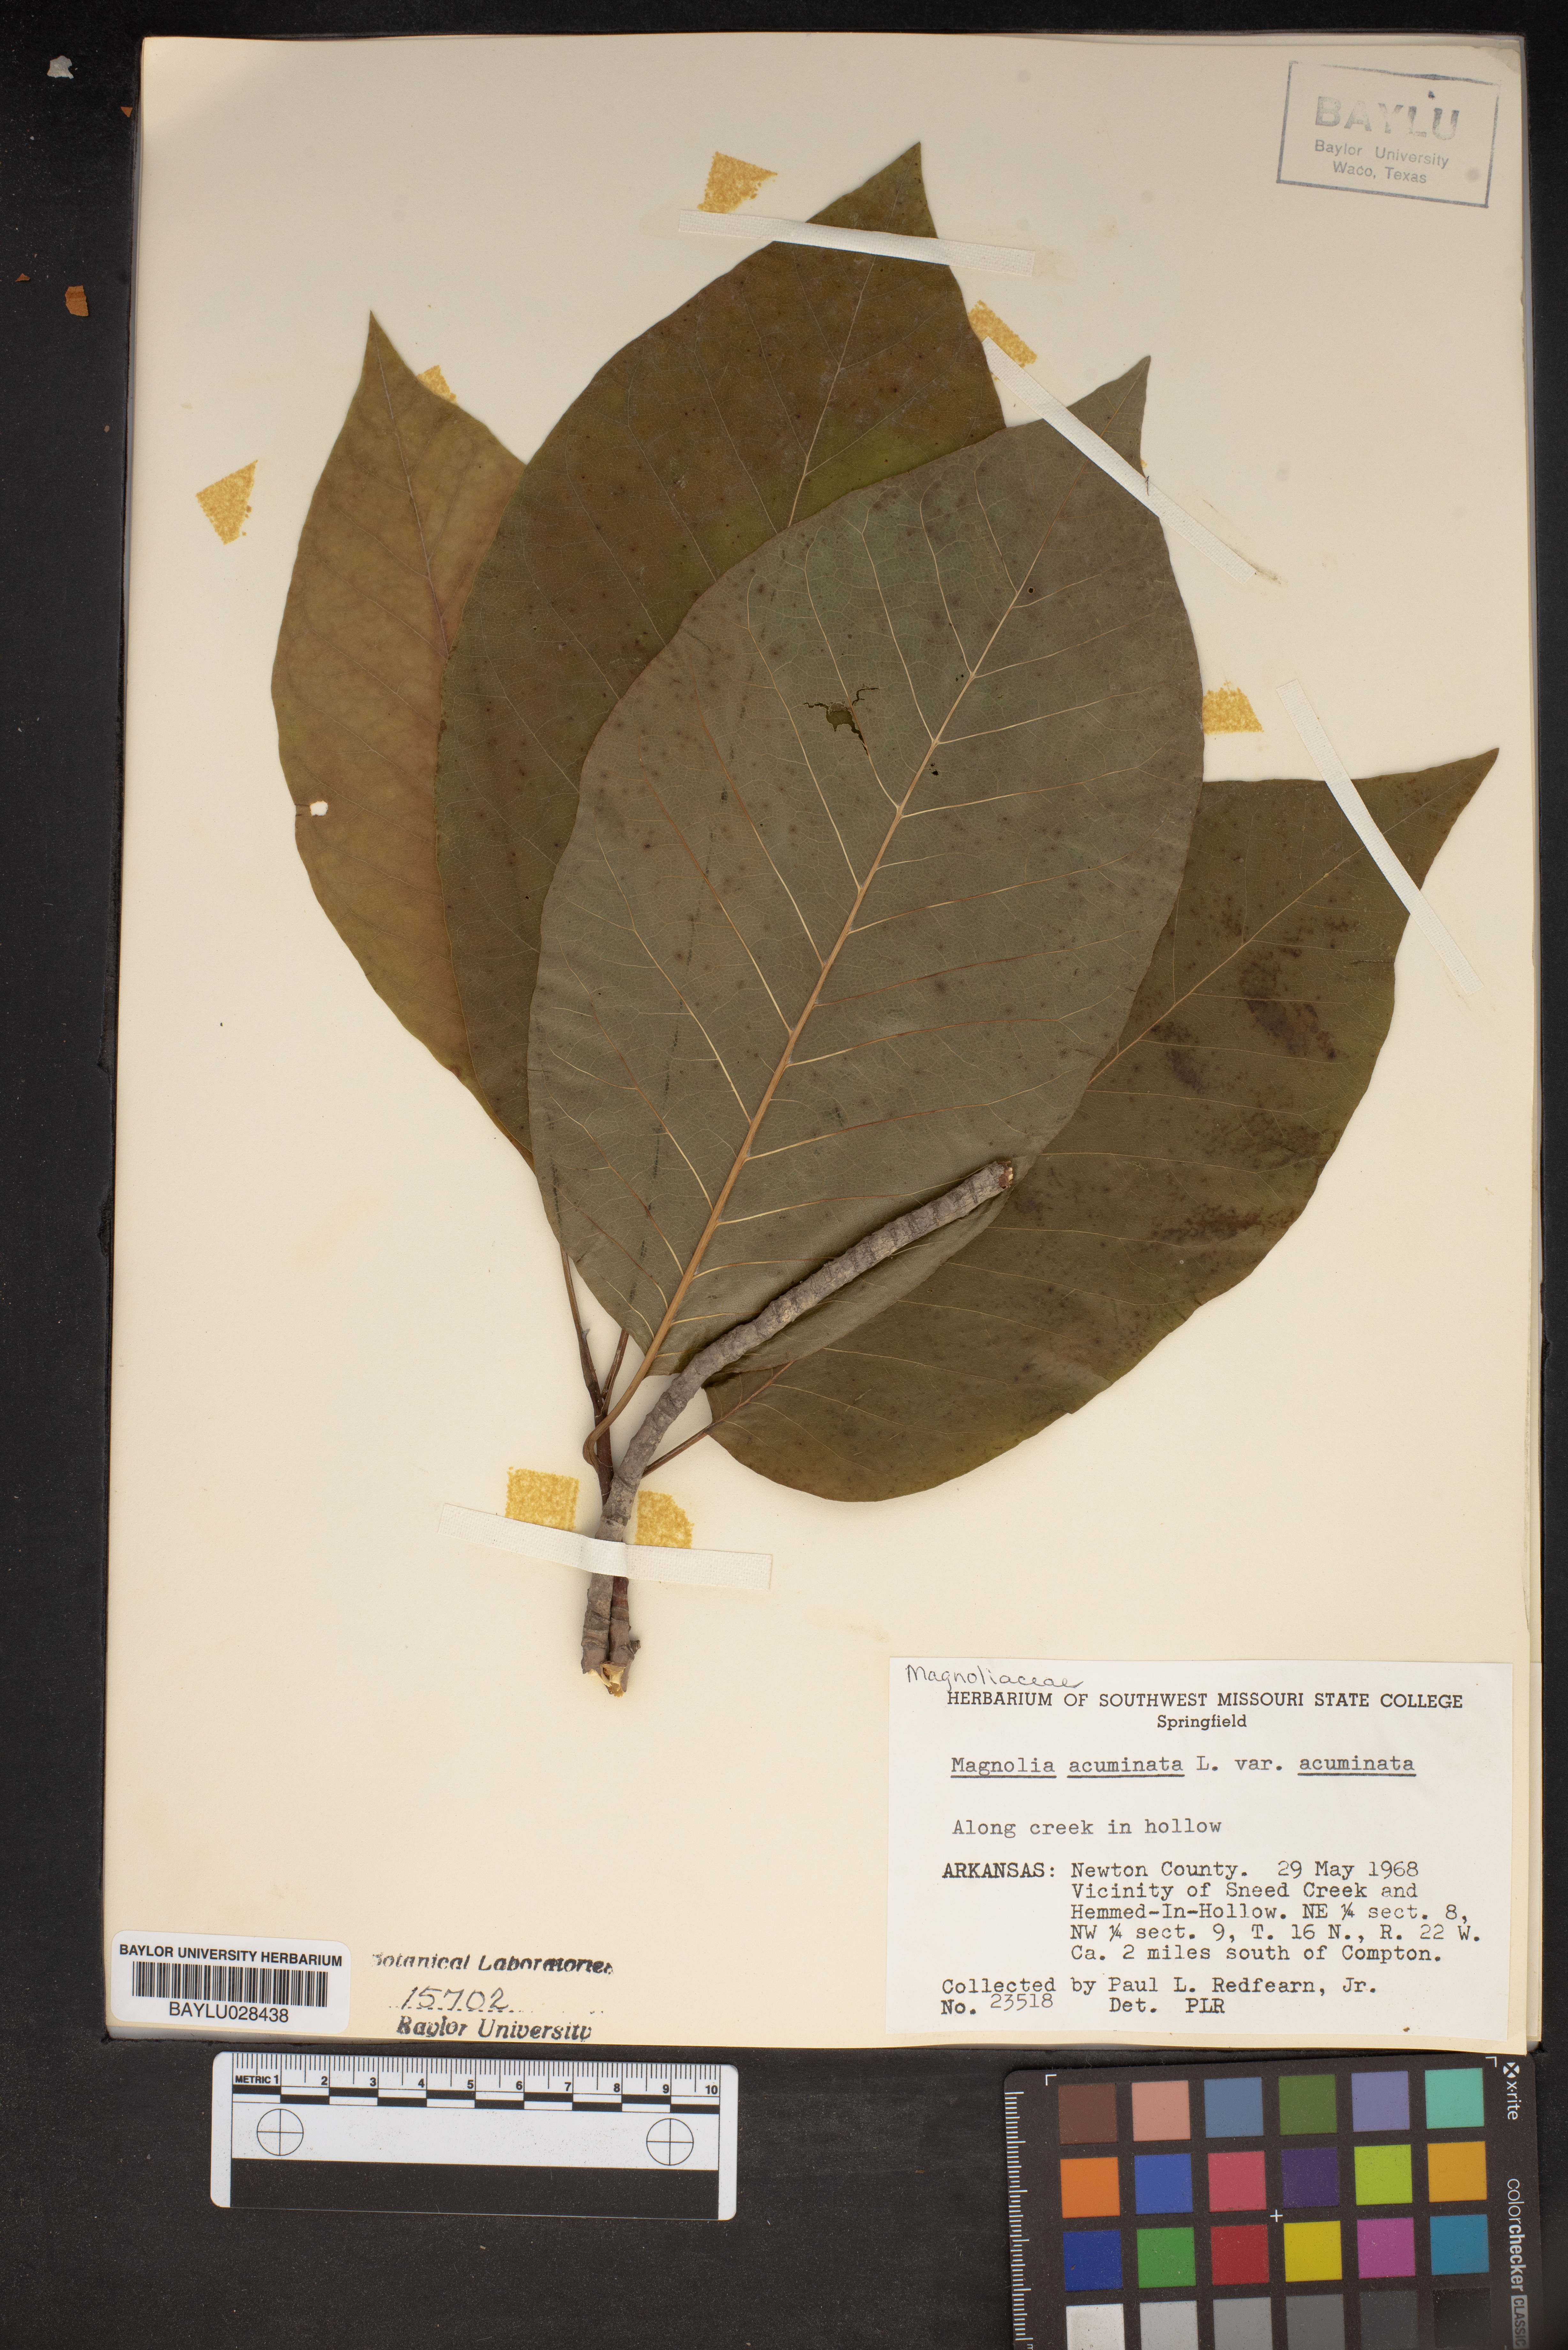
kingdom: Plantae
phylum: Tracheophyta
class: Magnoliopsida
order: Magnoliales
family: Magnoliaceae
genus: Magnolia
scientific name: Magnolia acuminata
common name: Cucumber magnolia
